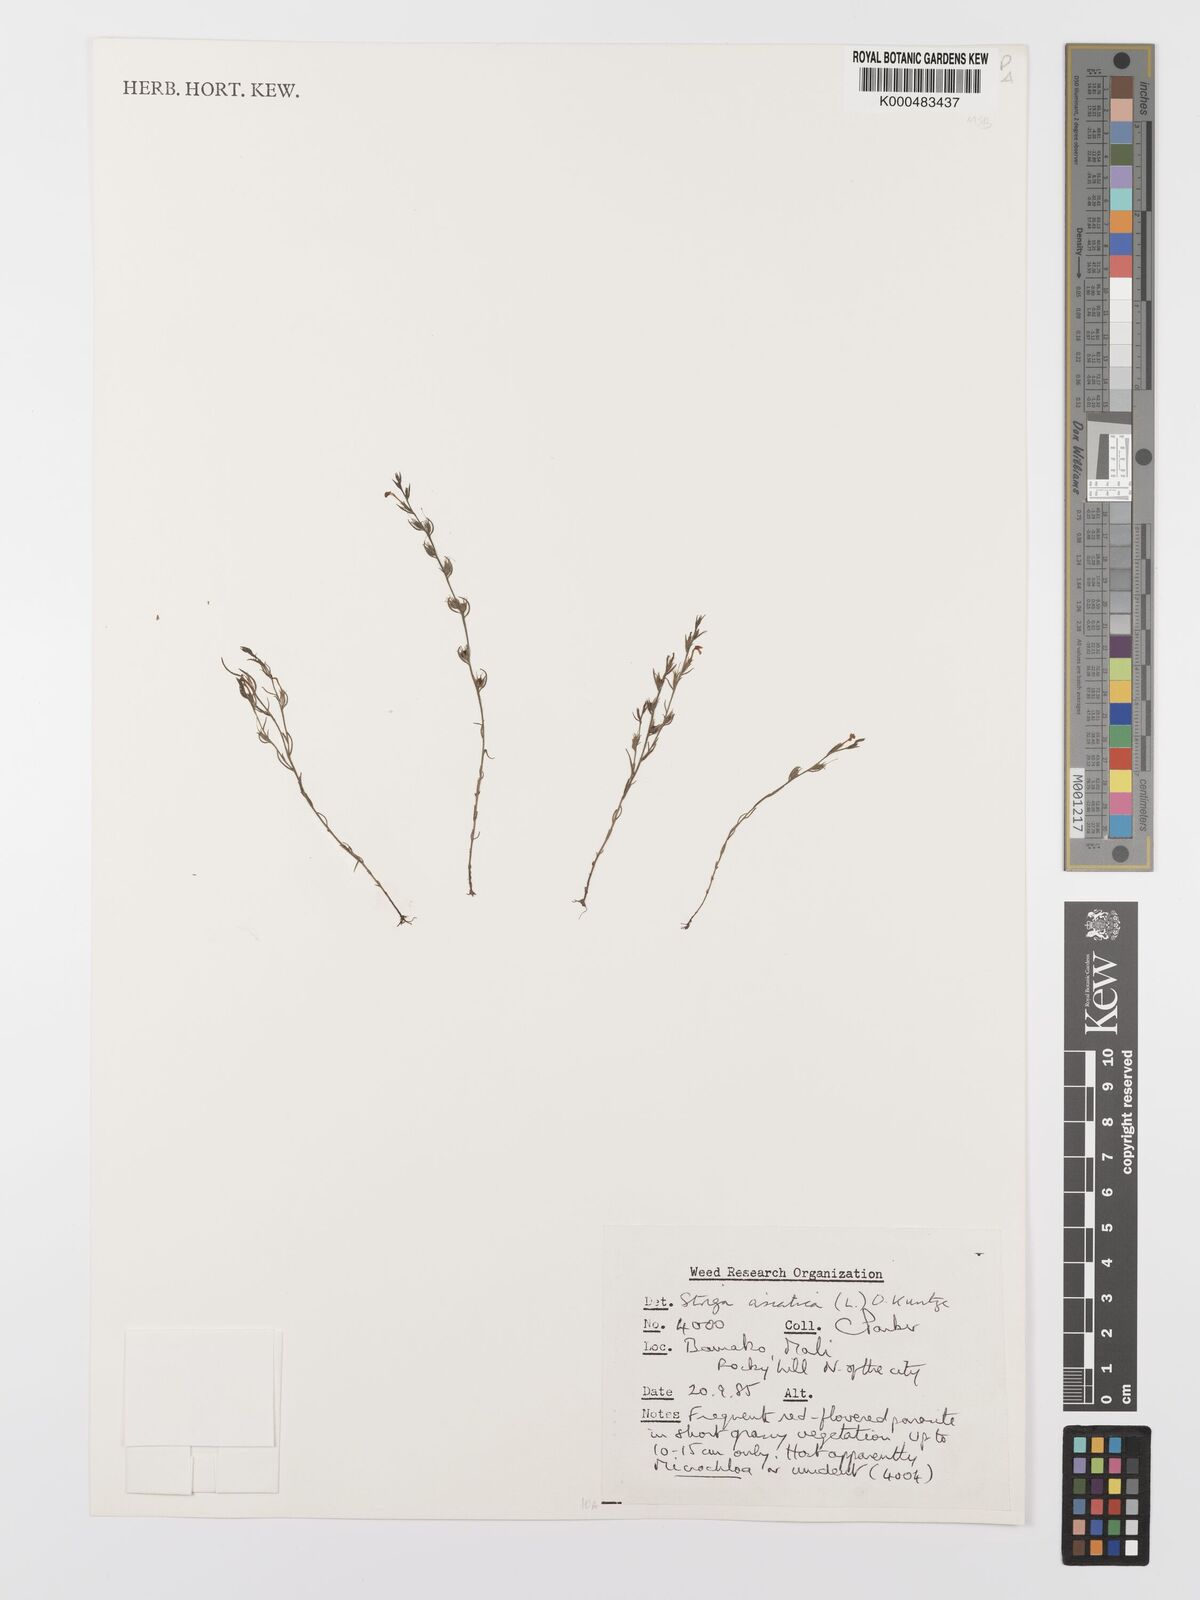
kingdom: Plantae
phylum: Tracheophyta
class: Magnoliopsida
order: Lamiales
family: Orobanchaceae
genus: Striga
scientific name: Striga asiatica
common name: Asiatic witchweed
